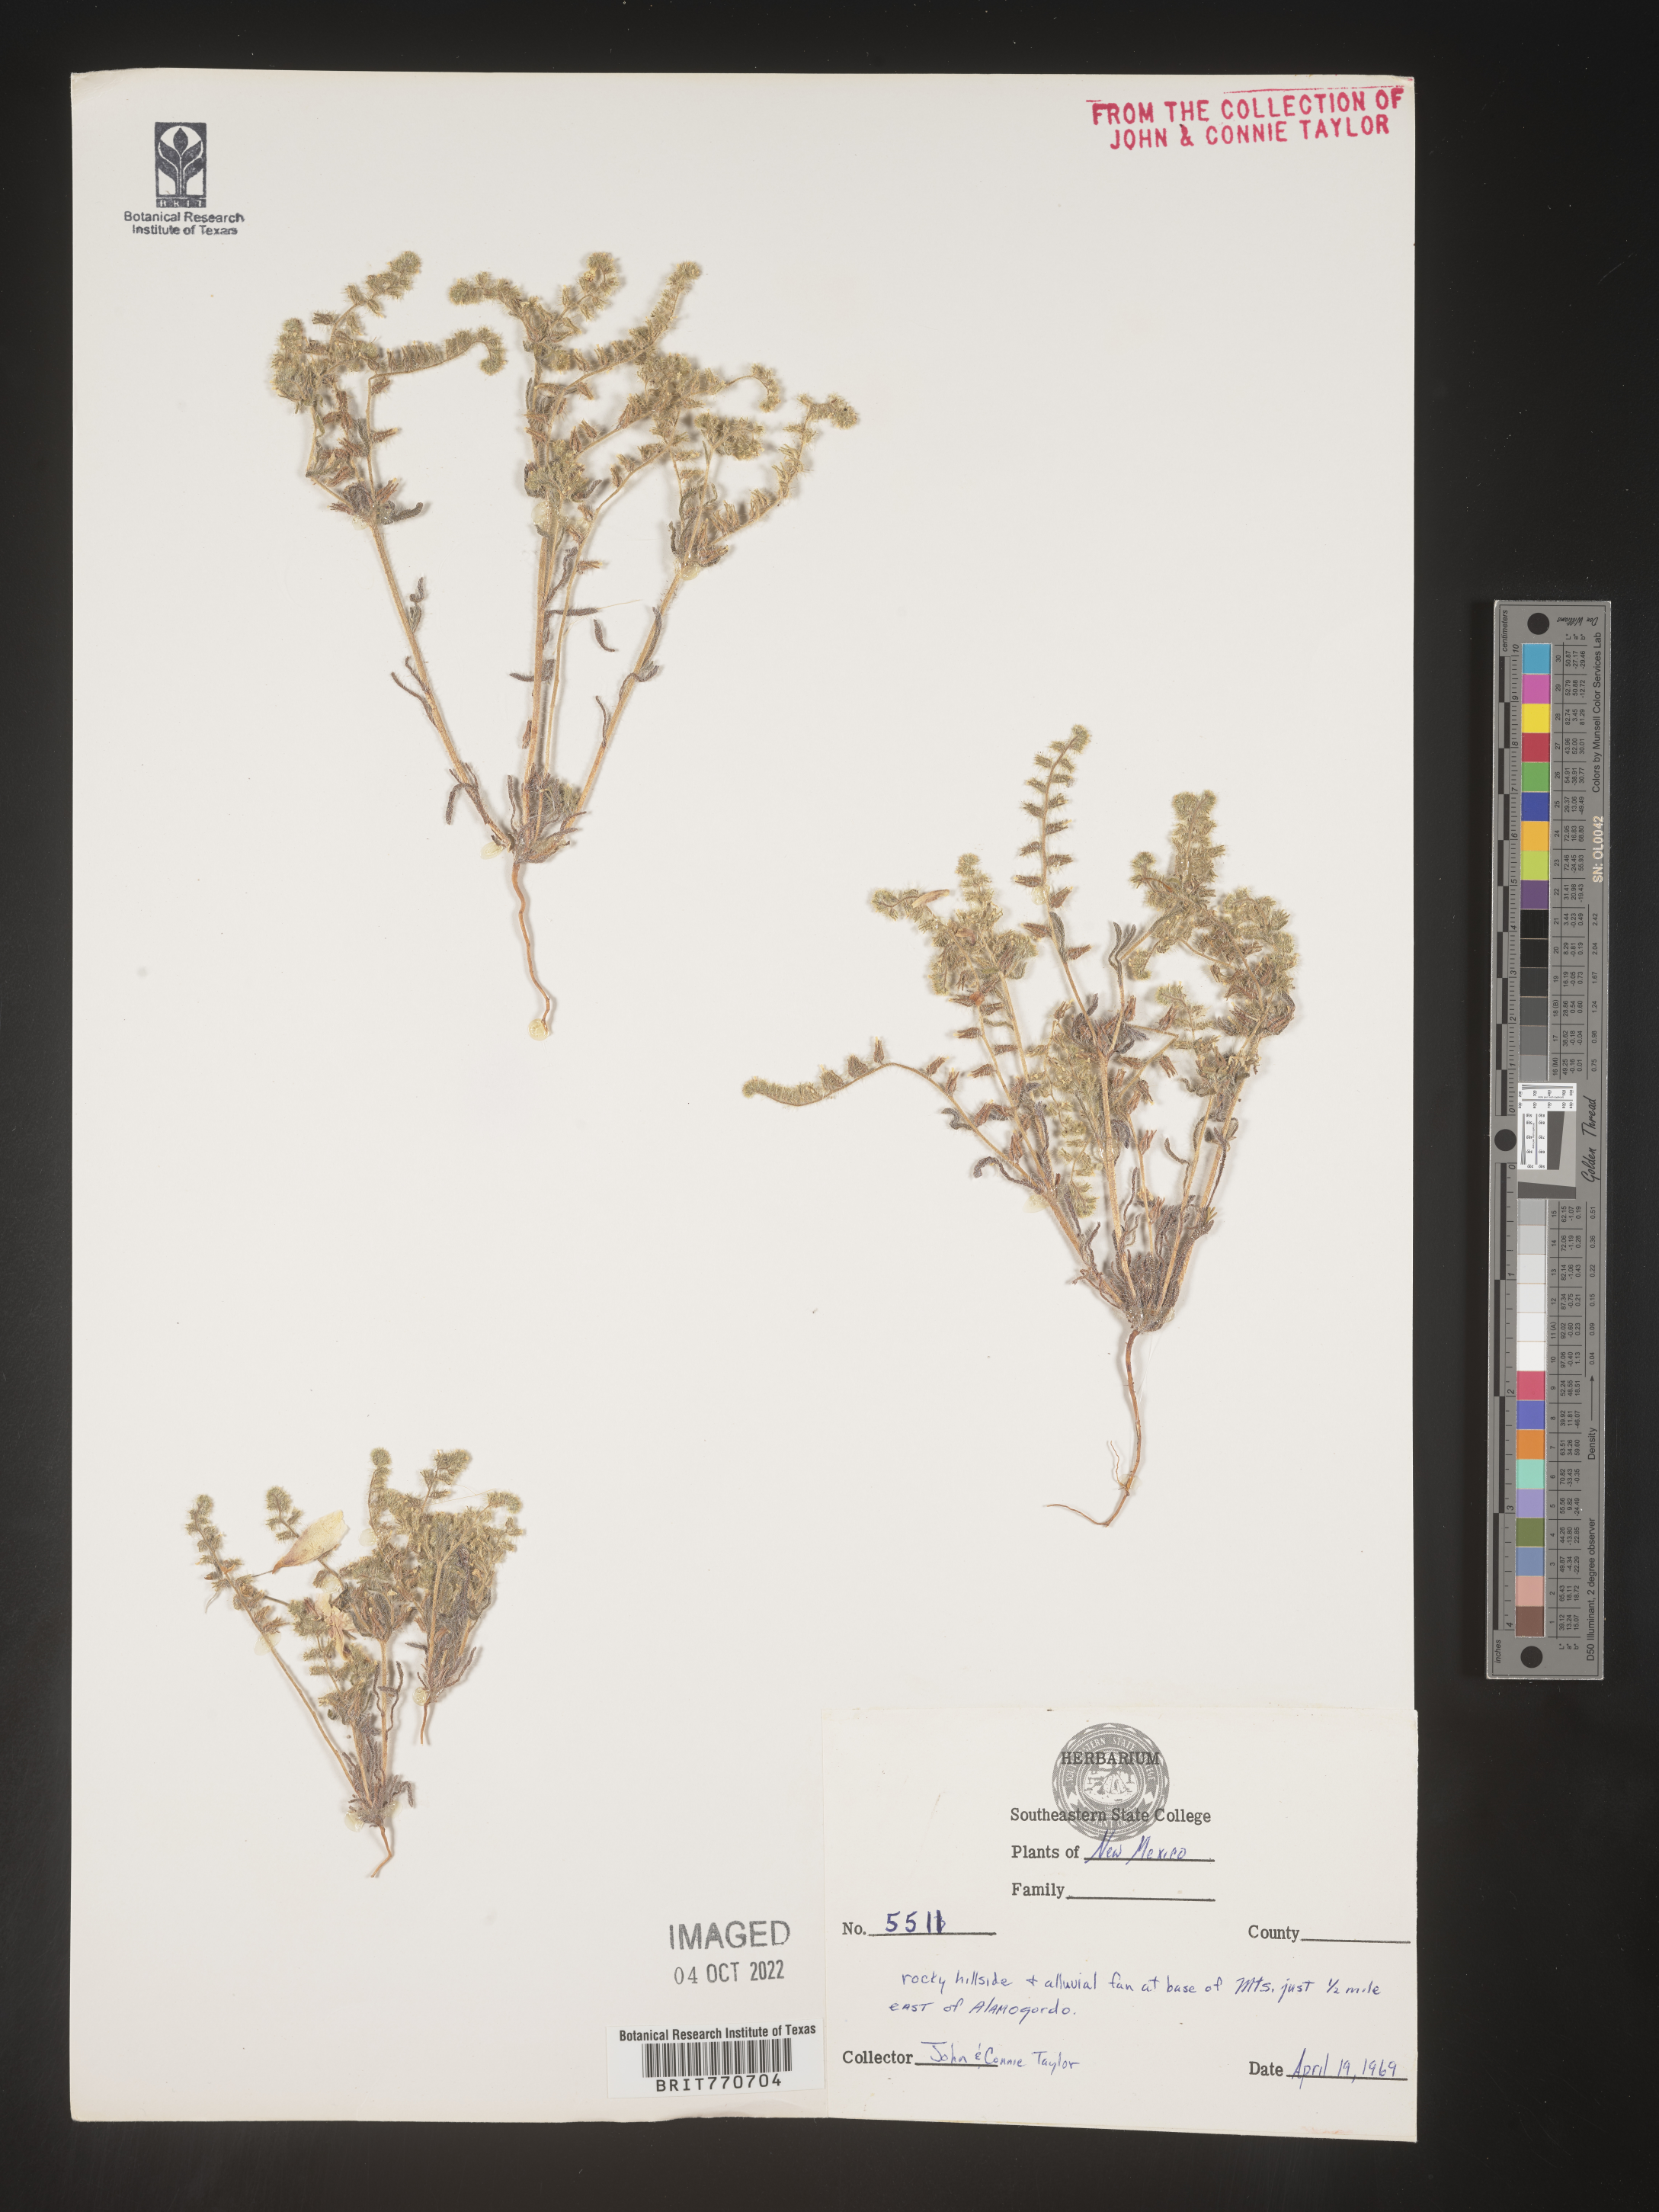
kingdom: Plantae
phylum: Tracheophyta
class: Magnoliopsida
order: Boraginales
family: Boraginaceae
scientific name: Boraginaceae
